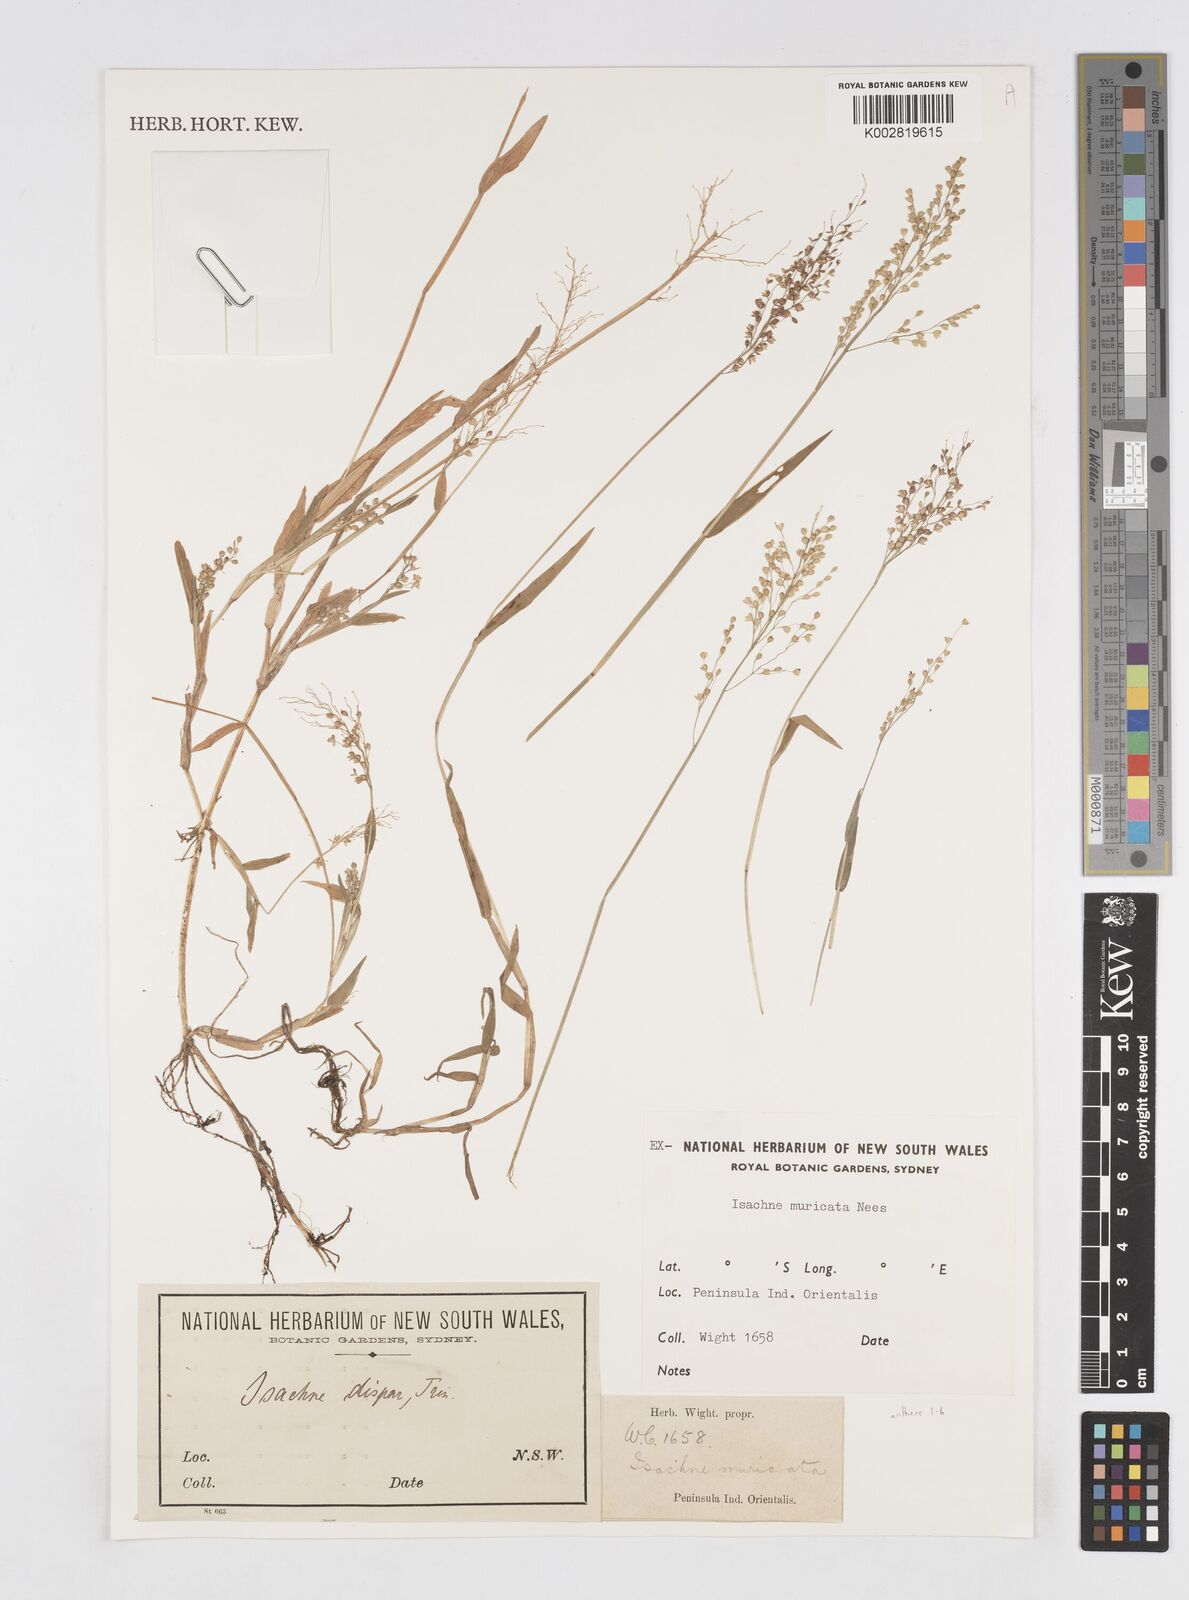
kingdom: Plantae
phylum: Tracheophyta
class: Liliopsida
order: Poales
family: Poaceae
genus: Isachne
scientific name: Isachne globosa
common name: Swamp millet
